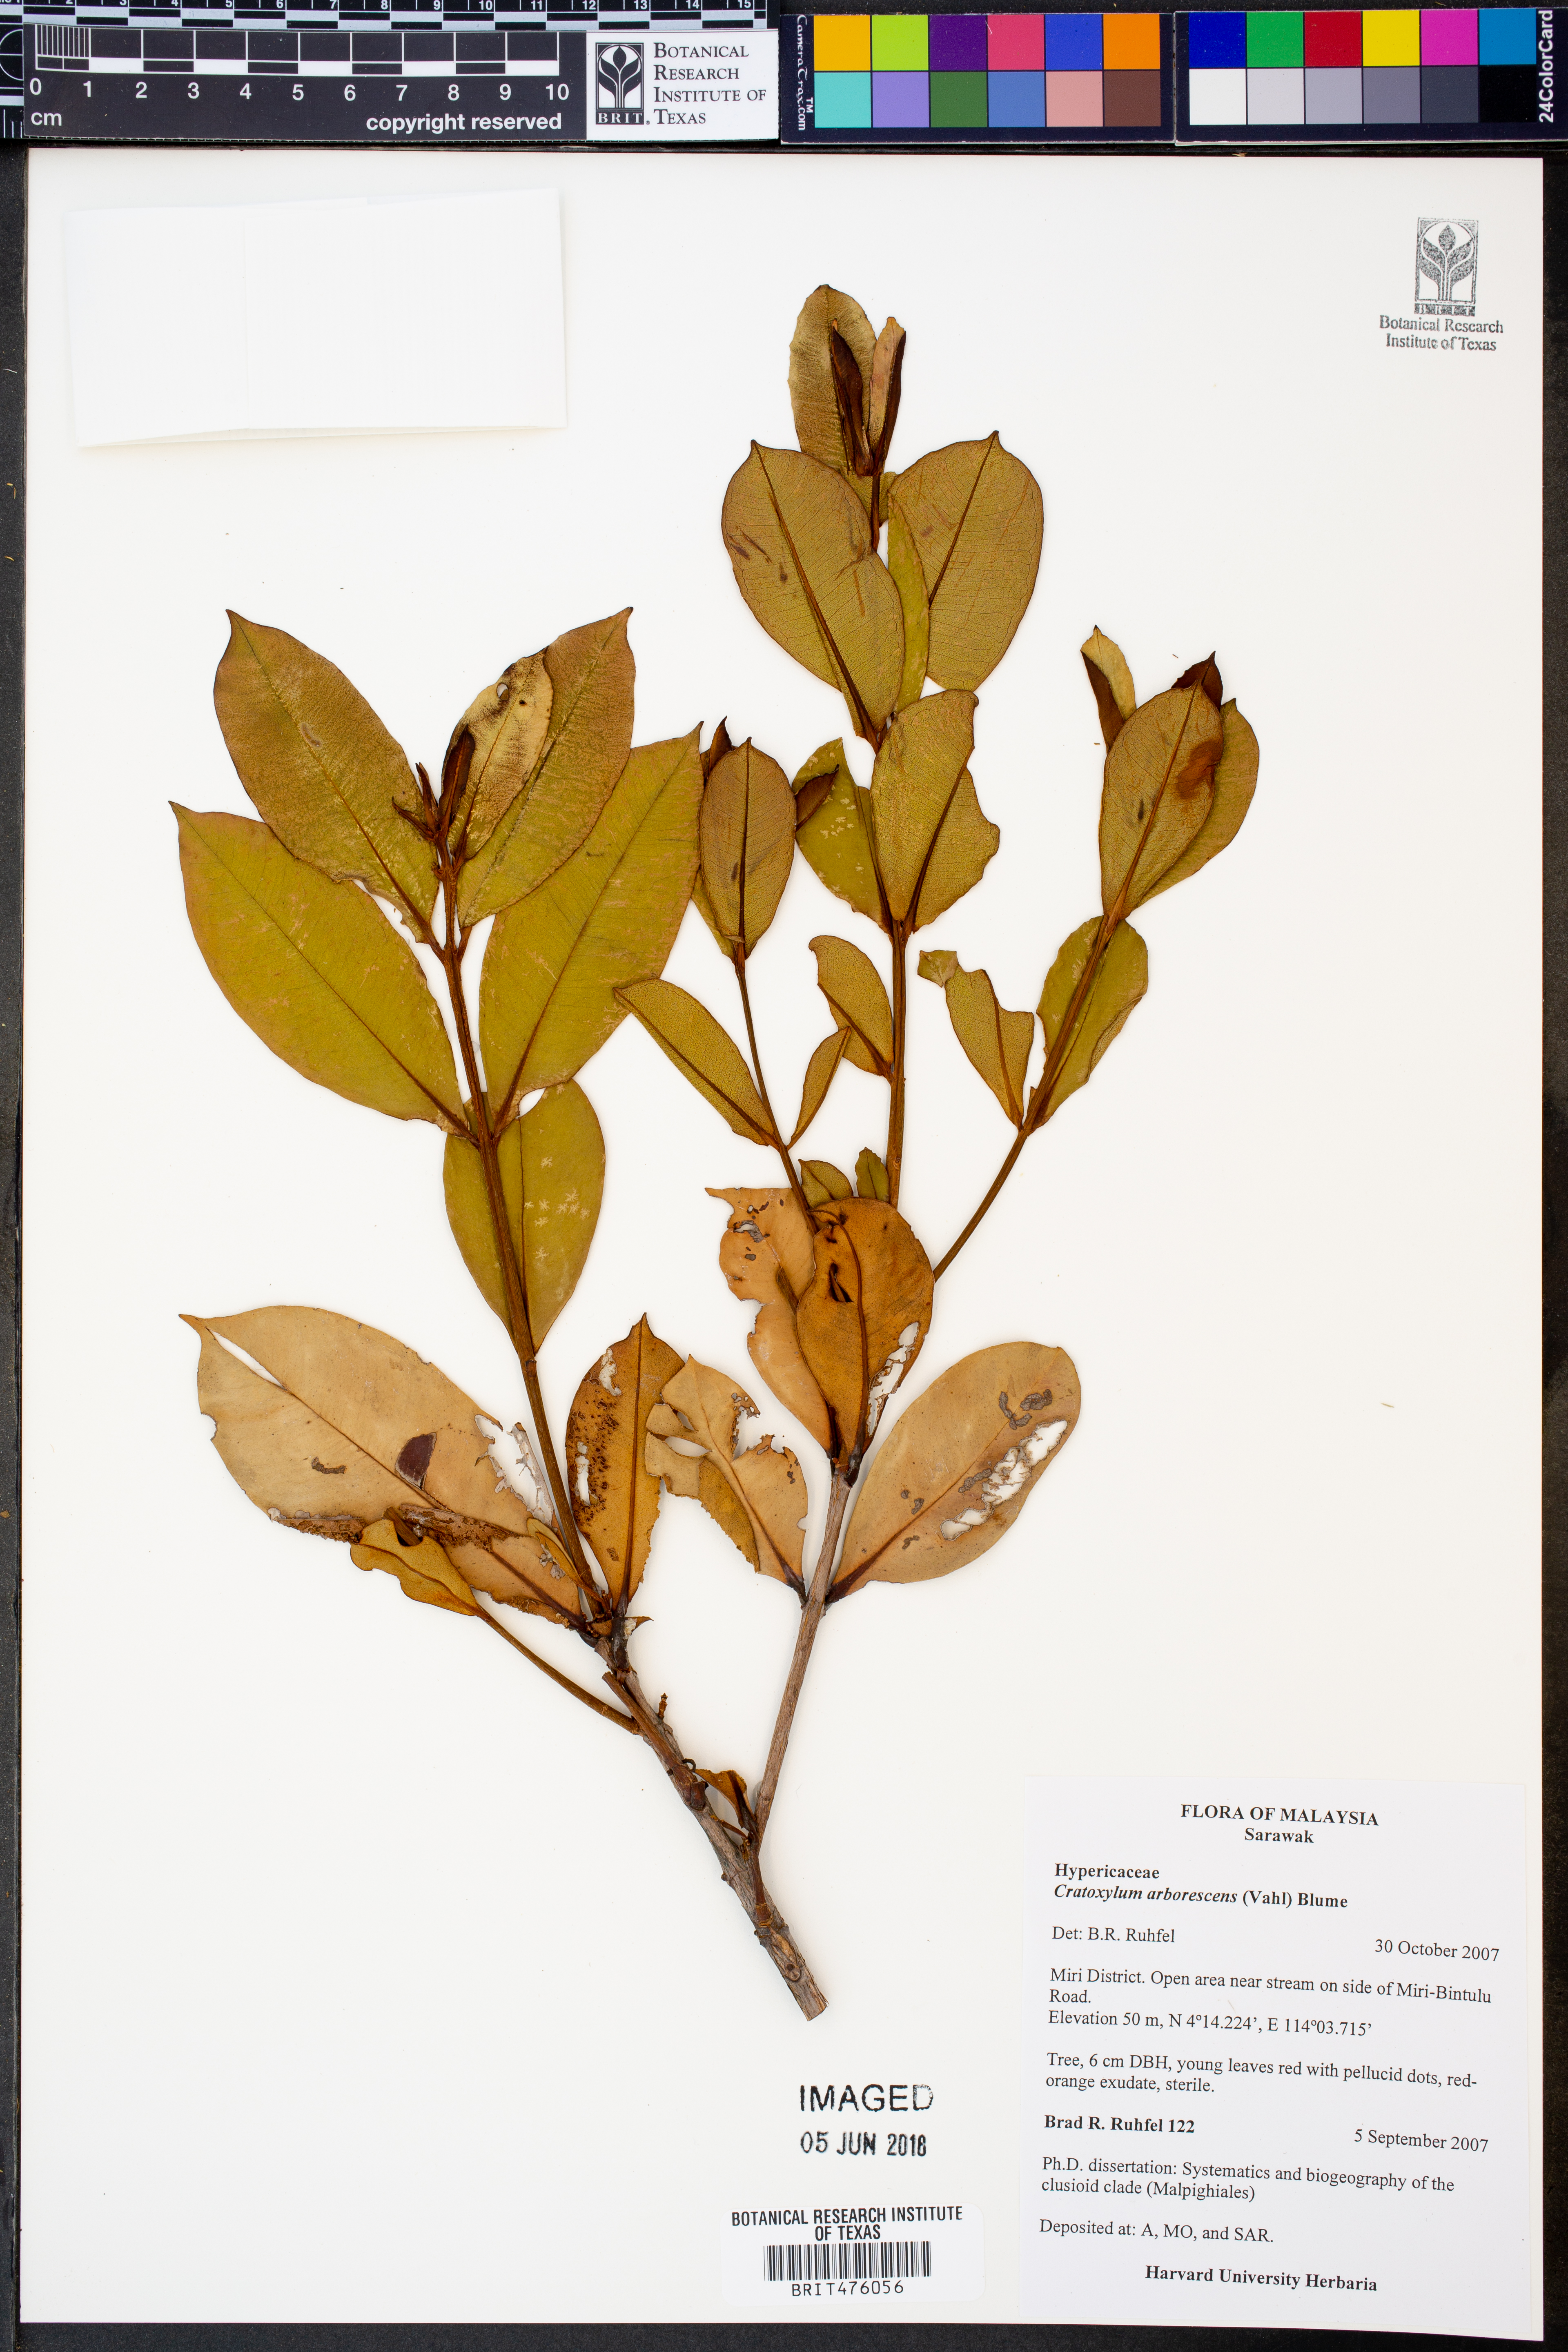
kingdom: Plantae
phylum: Tracheophyta
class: Magnoliopsida
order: Malpighiales
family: Hypericaceae
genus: Cratoxylum
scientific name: Cratoxylum arborescens
